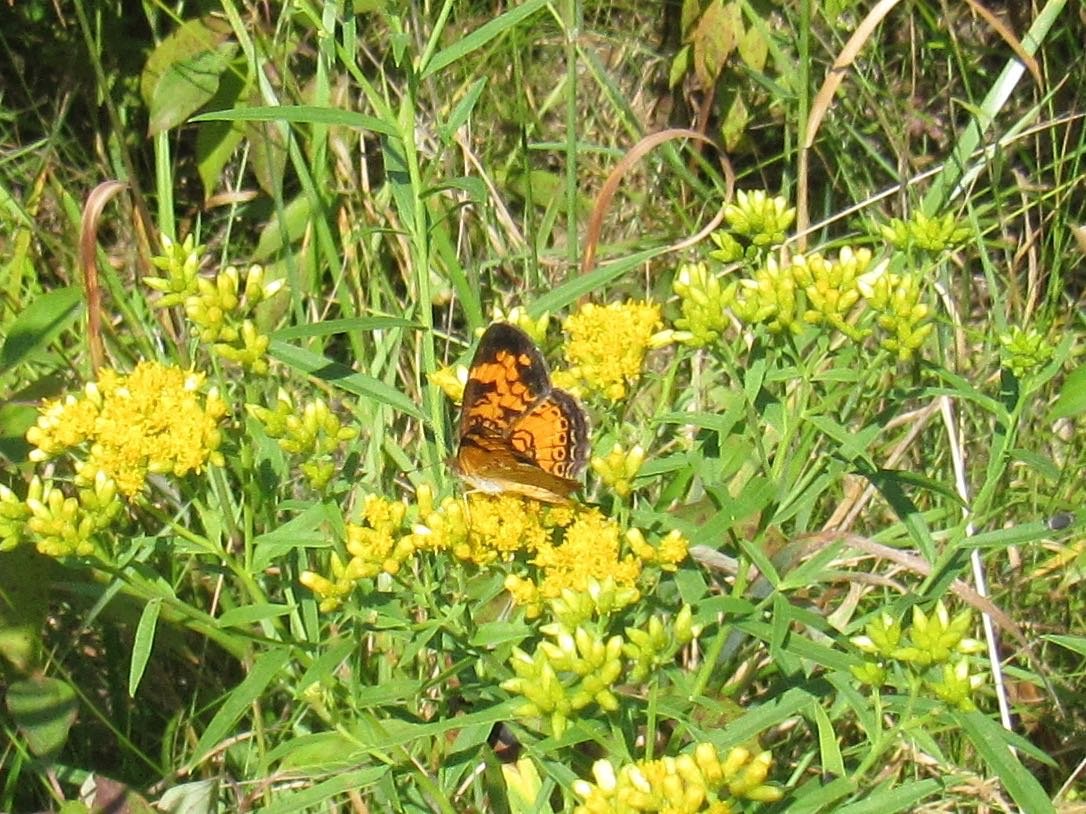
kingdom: Animalia
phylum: Arthropoda
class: Insecta
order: Lepidoptera
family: Nymphalidae
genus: Phyciodes
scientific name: Phyciodes tharos
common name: Pearl Crescent
